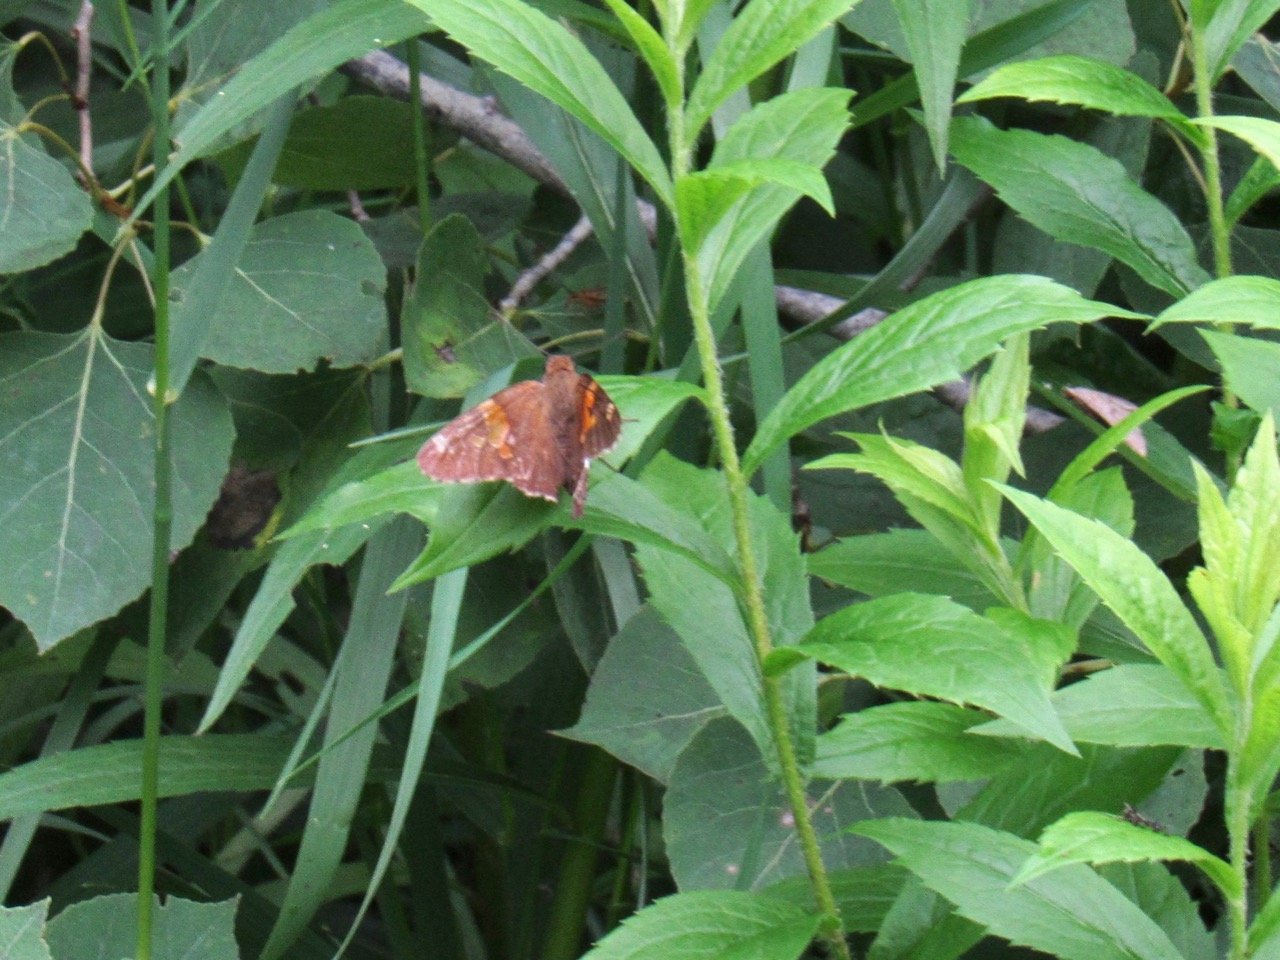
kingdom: Animalia
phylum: Arthropoda
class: Insecta
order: Lepidoptera
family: Hesperiidae
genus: Epargyreus
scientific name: Epargyreus clarus
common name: Silver-spotted Skipper
